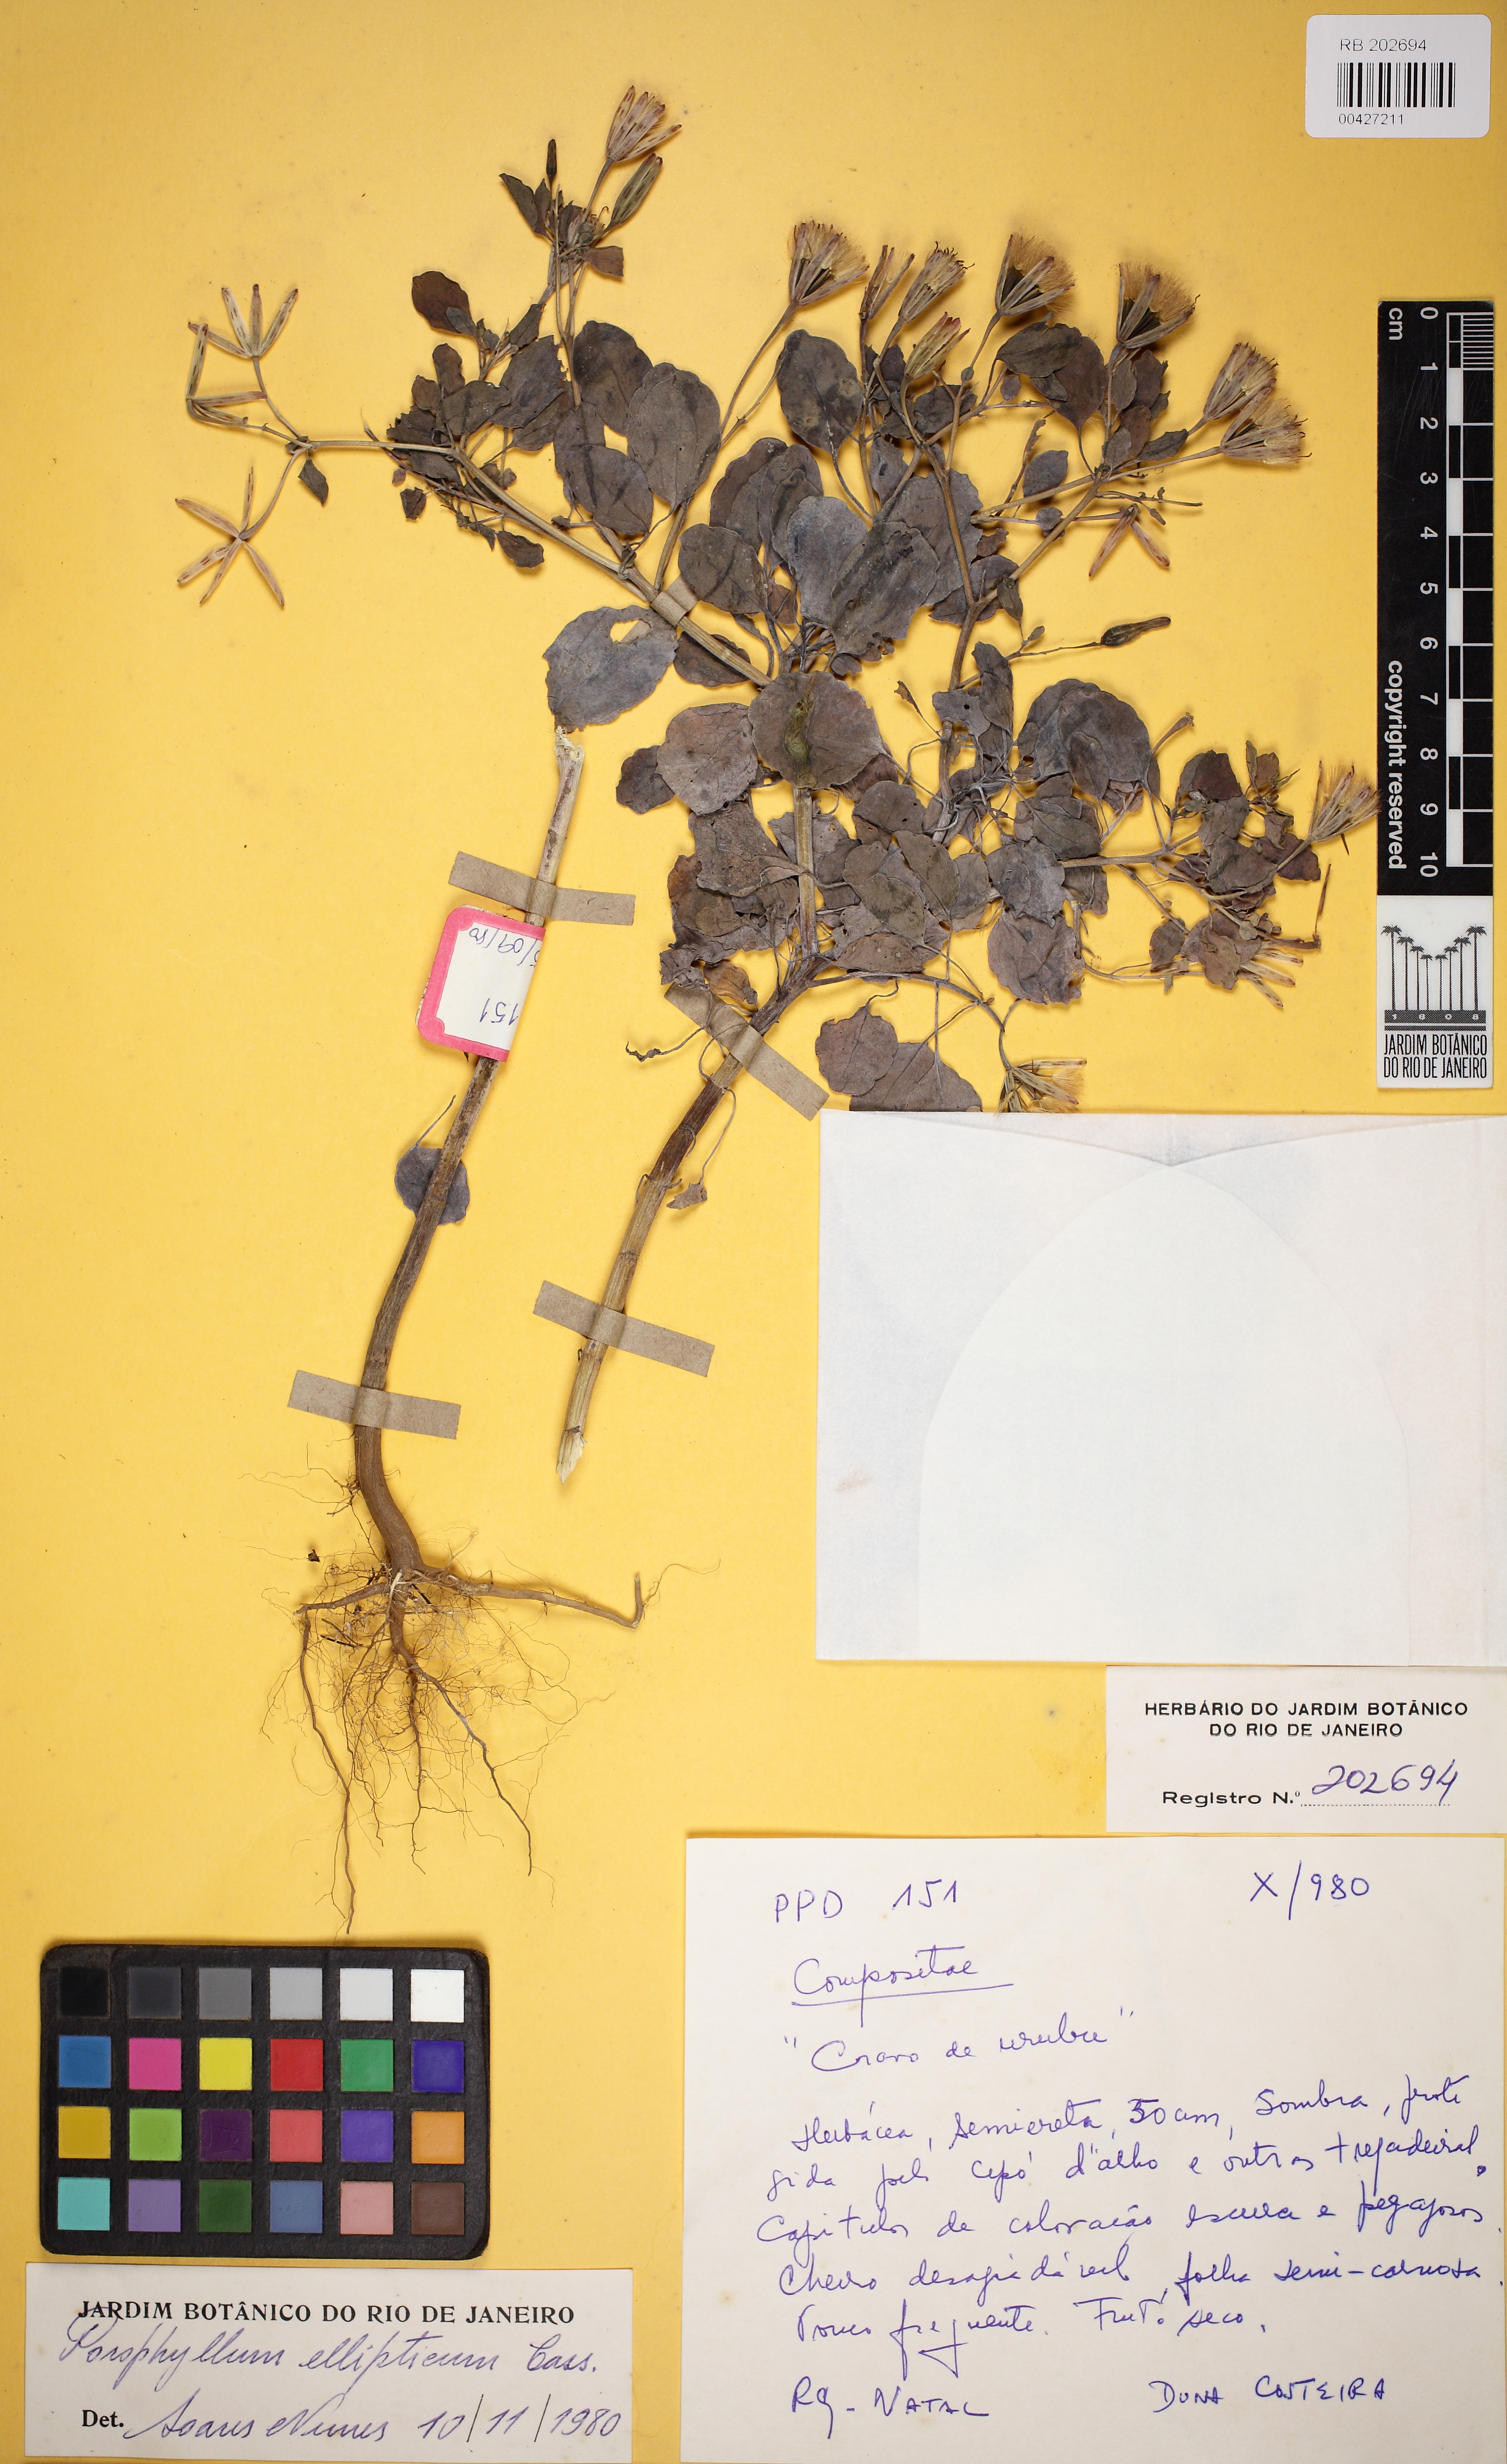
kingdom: Plantae
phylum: Tracheophyta
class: Magnoliopsida
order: Asterales
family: Asteraceae
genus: Porophyllum
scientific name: Porophyllum ruderale
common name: Yerba porosa
